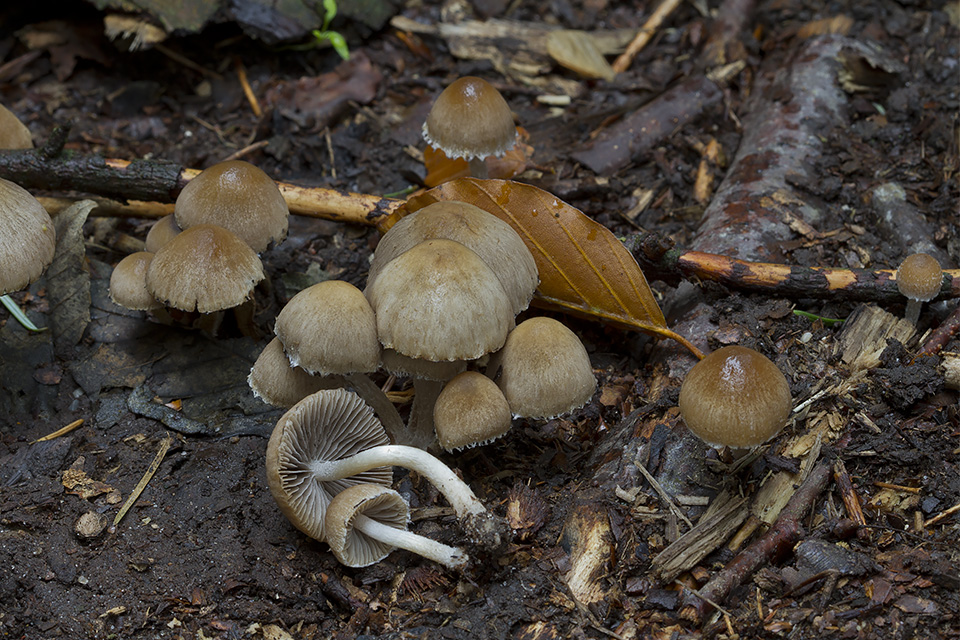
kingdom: Fungi
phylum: Basidiomycota
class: Agaricomycetes
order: Agaricales
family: Psathyrellaceae
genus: Psathyrella
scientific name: Psathyrella impexa
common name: rødmende mørkhat
